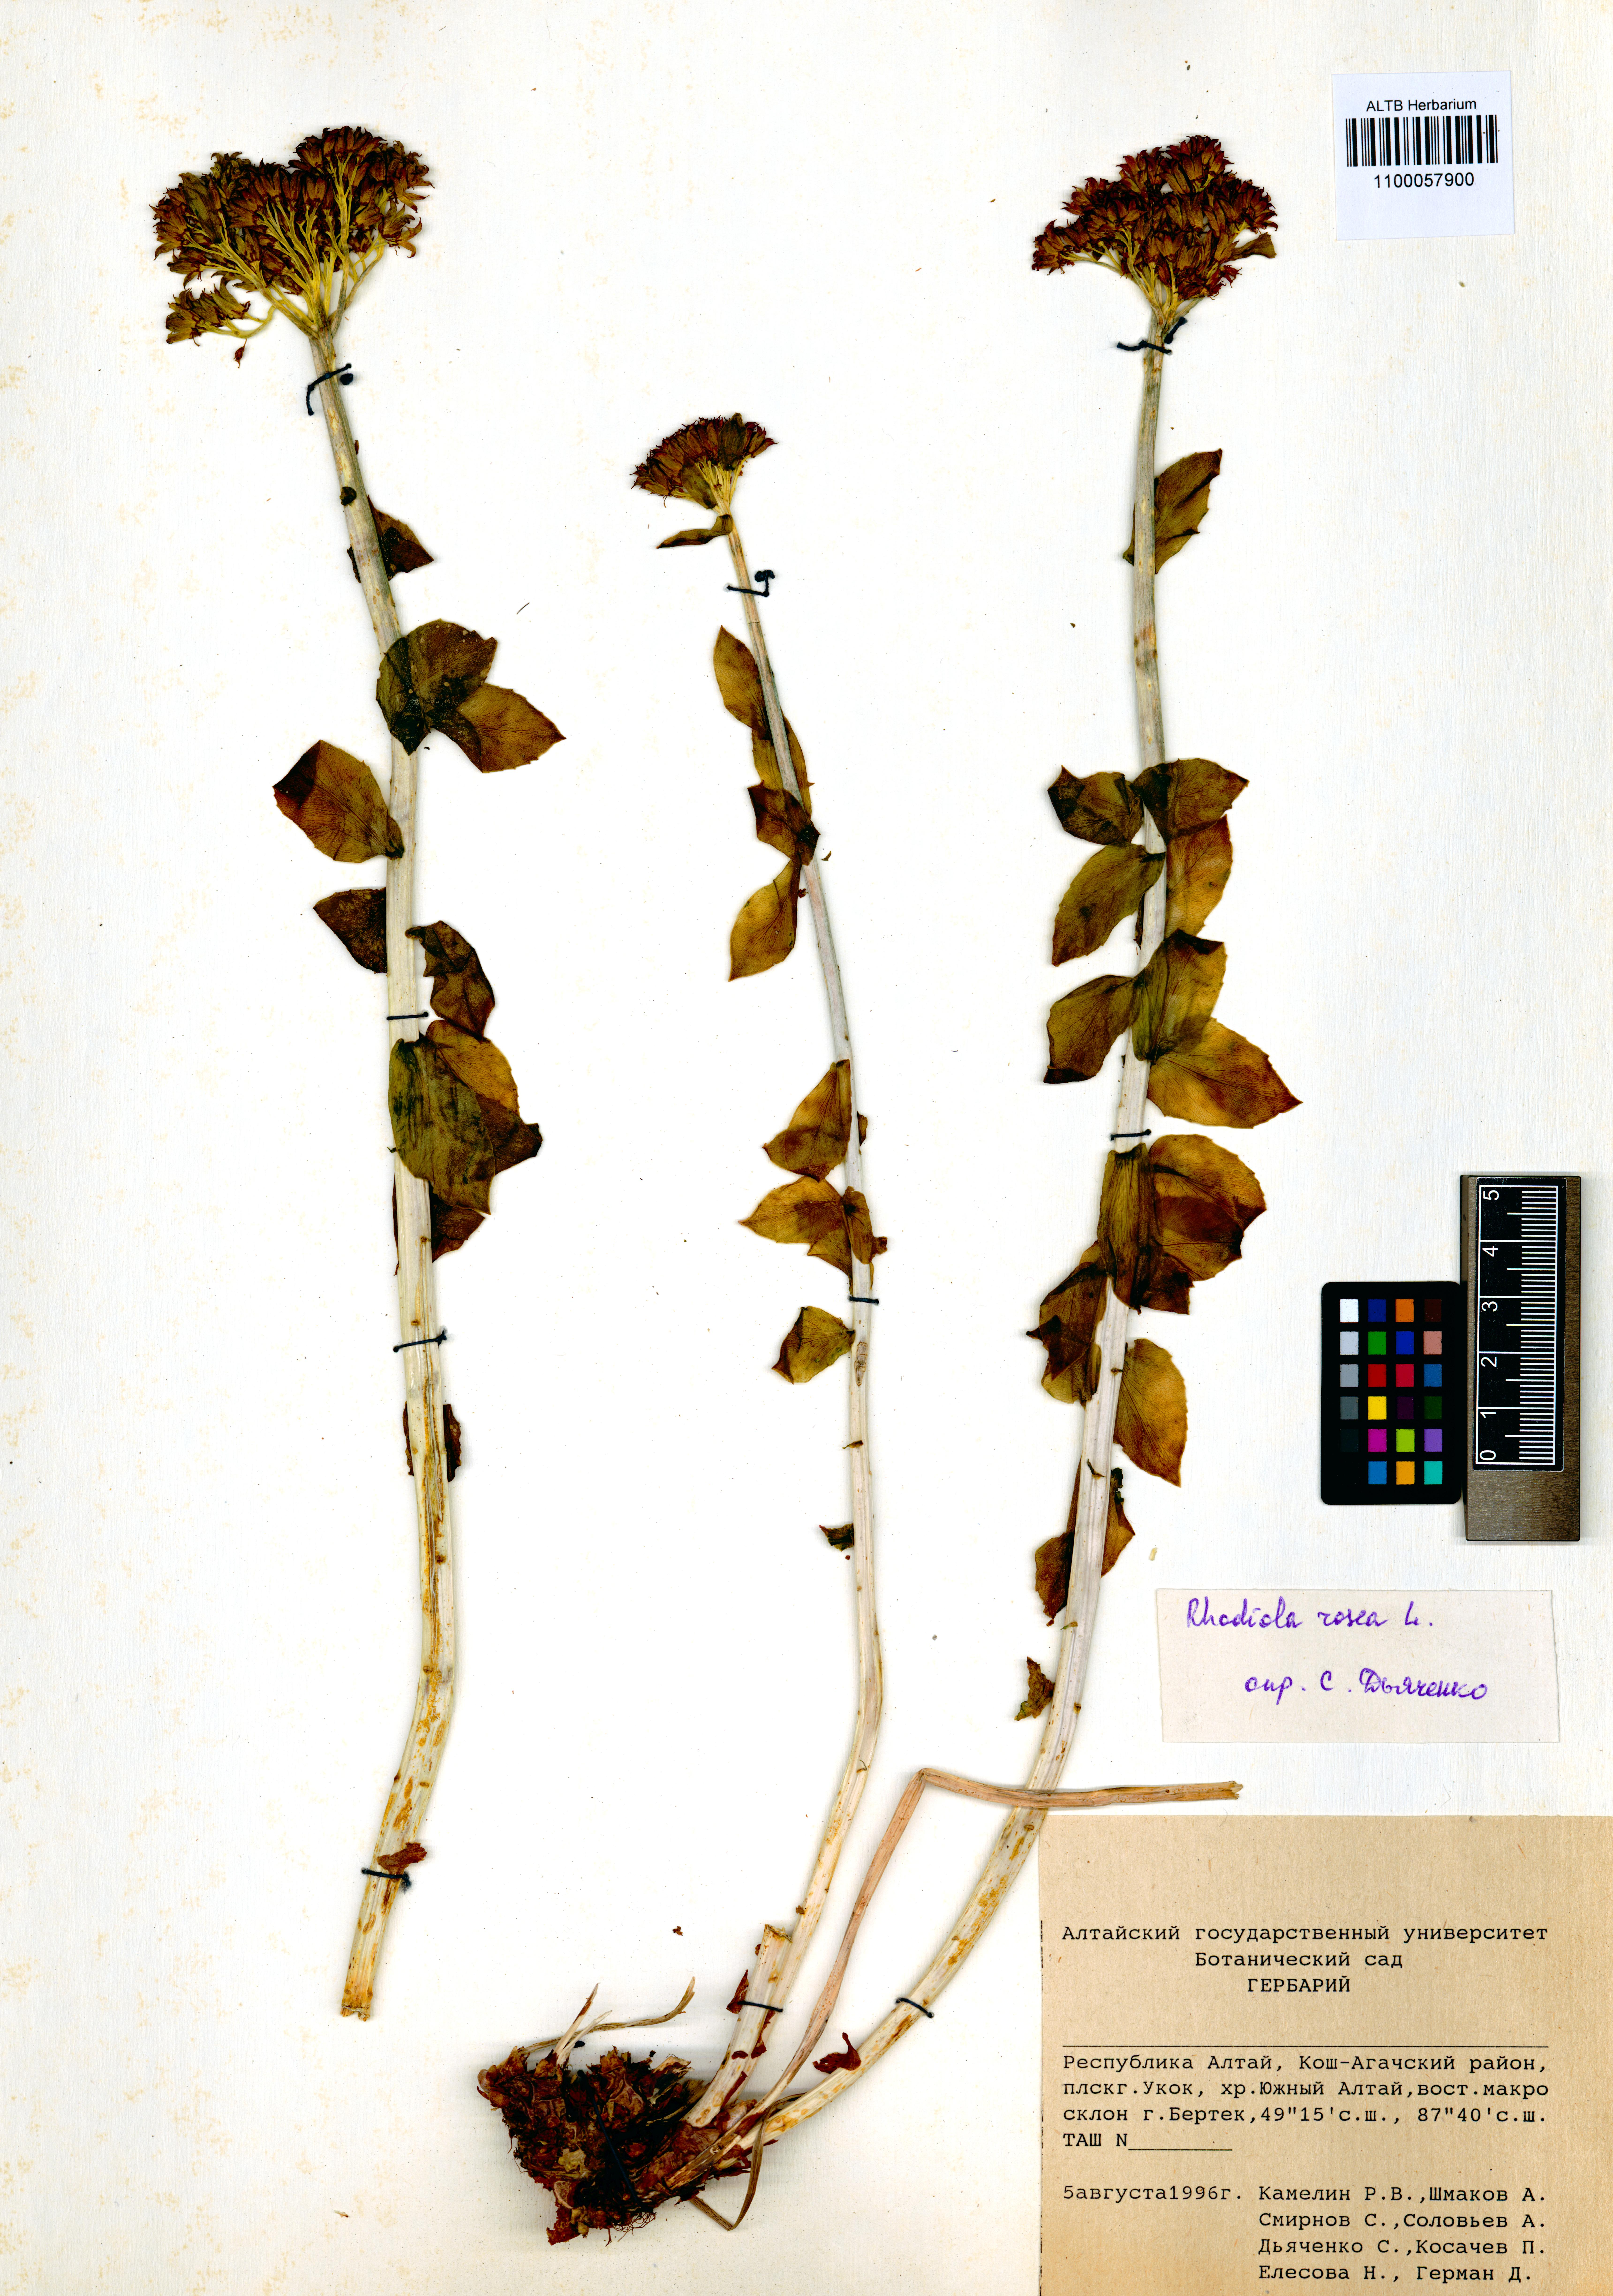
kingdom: Plantae
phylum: Tracheophyta
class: Magnoliopsida
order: Saxifragales
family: Crassulaceae
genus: Rhodiola
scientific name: Rhodiola rosea
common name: Roseroot
